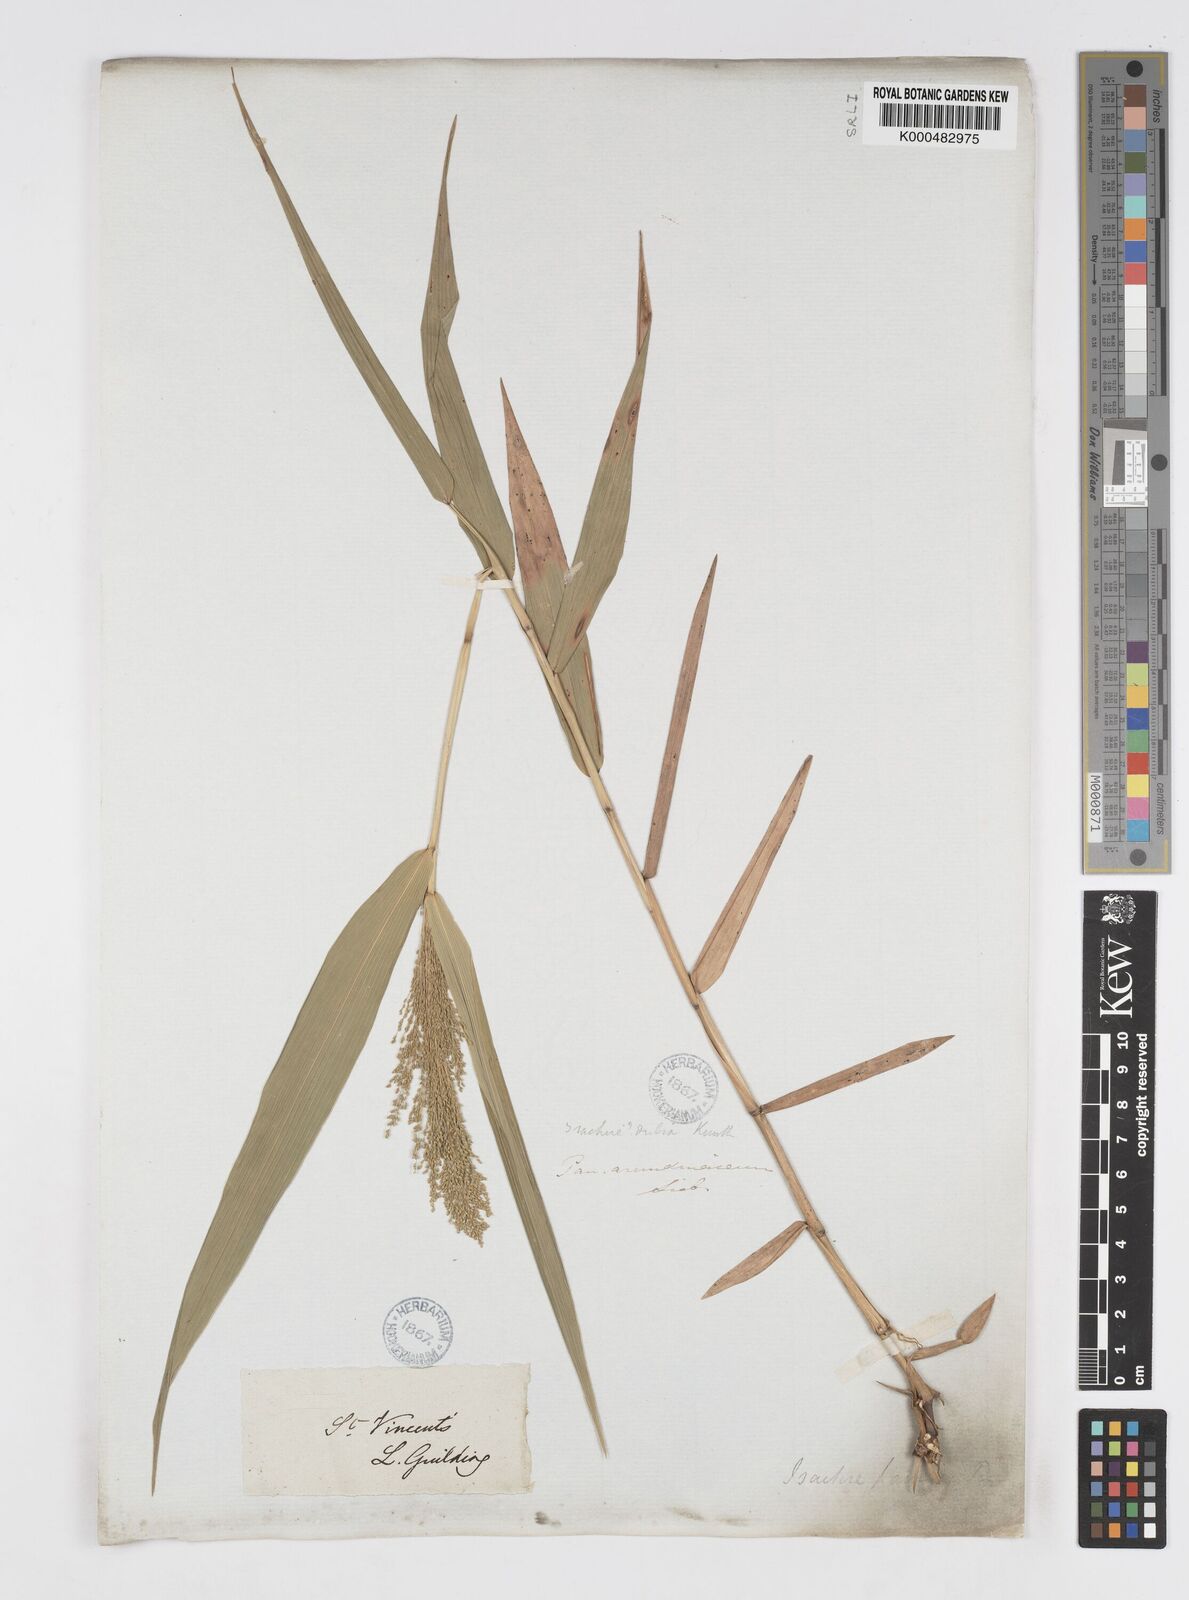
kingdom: Plantae
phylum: Tracheophyta
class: Liliopsida
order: Poales
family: Poaceae
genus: Isachne
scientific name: Isachne
